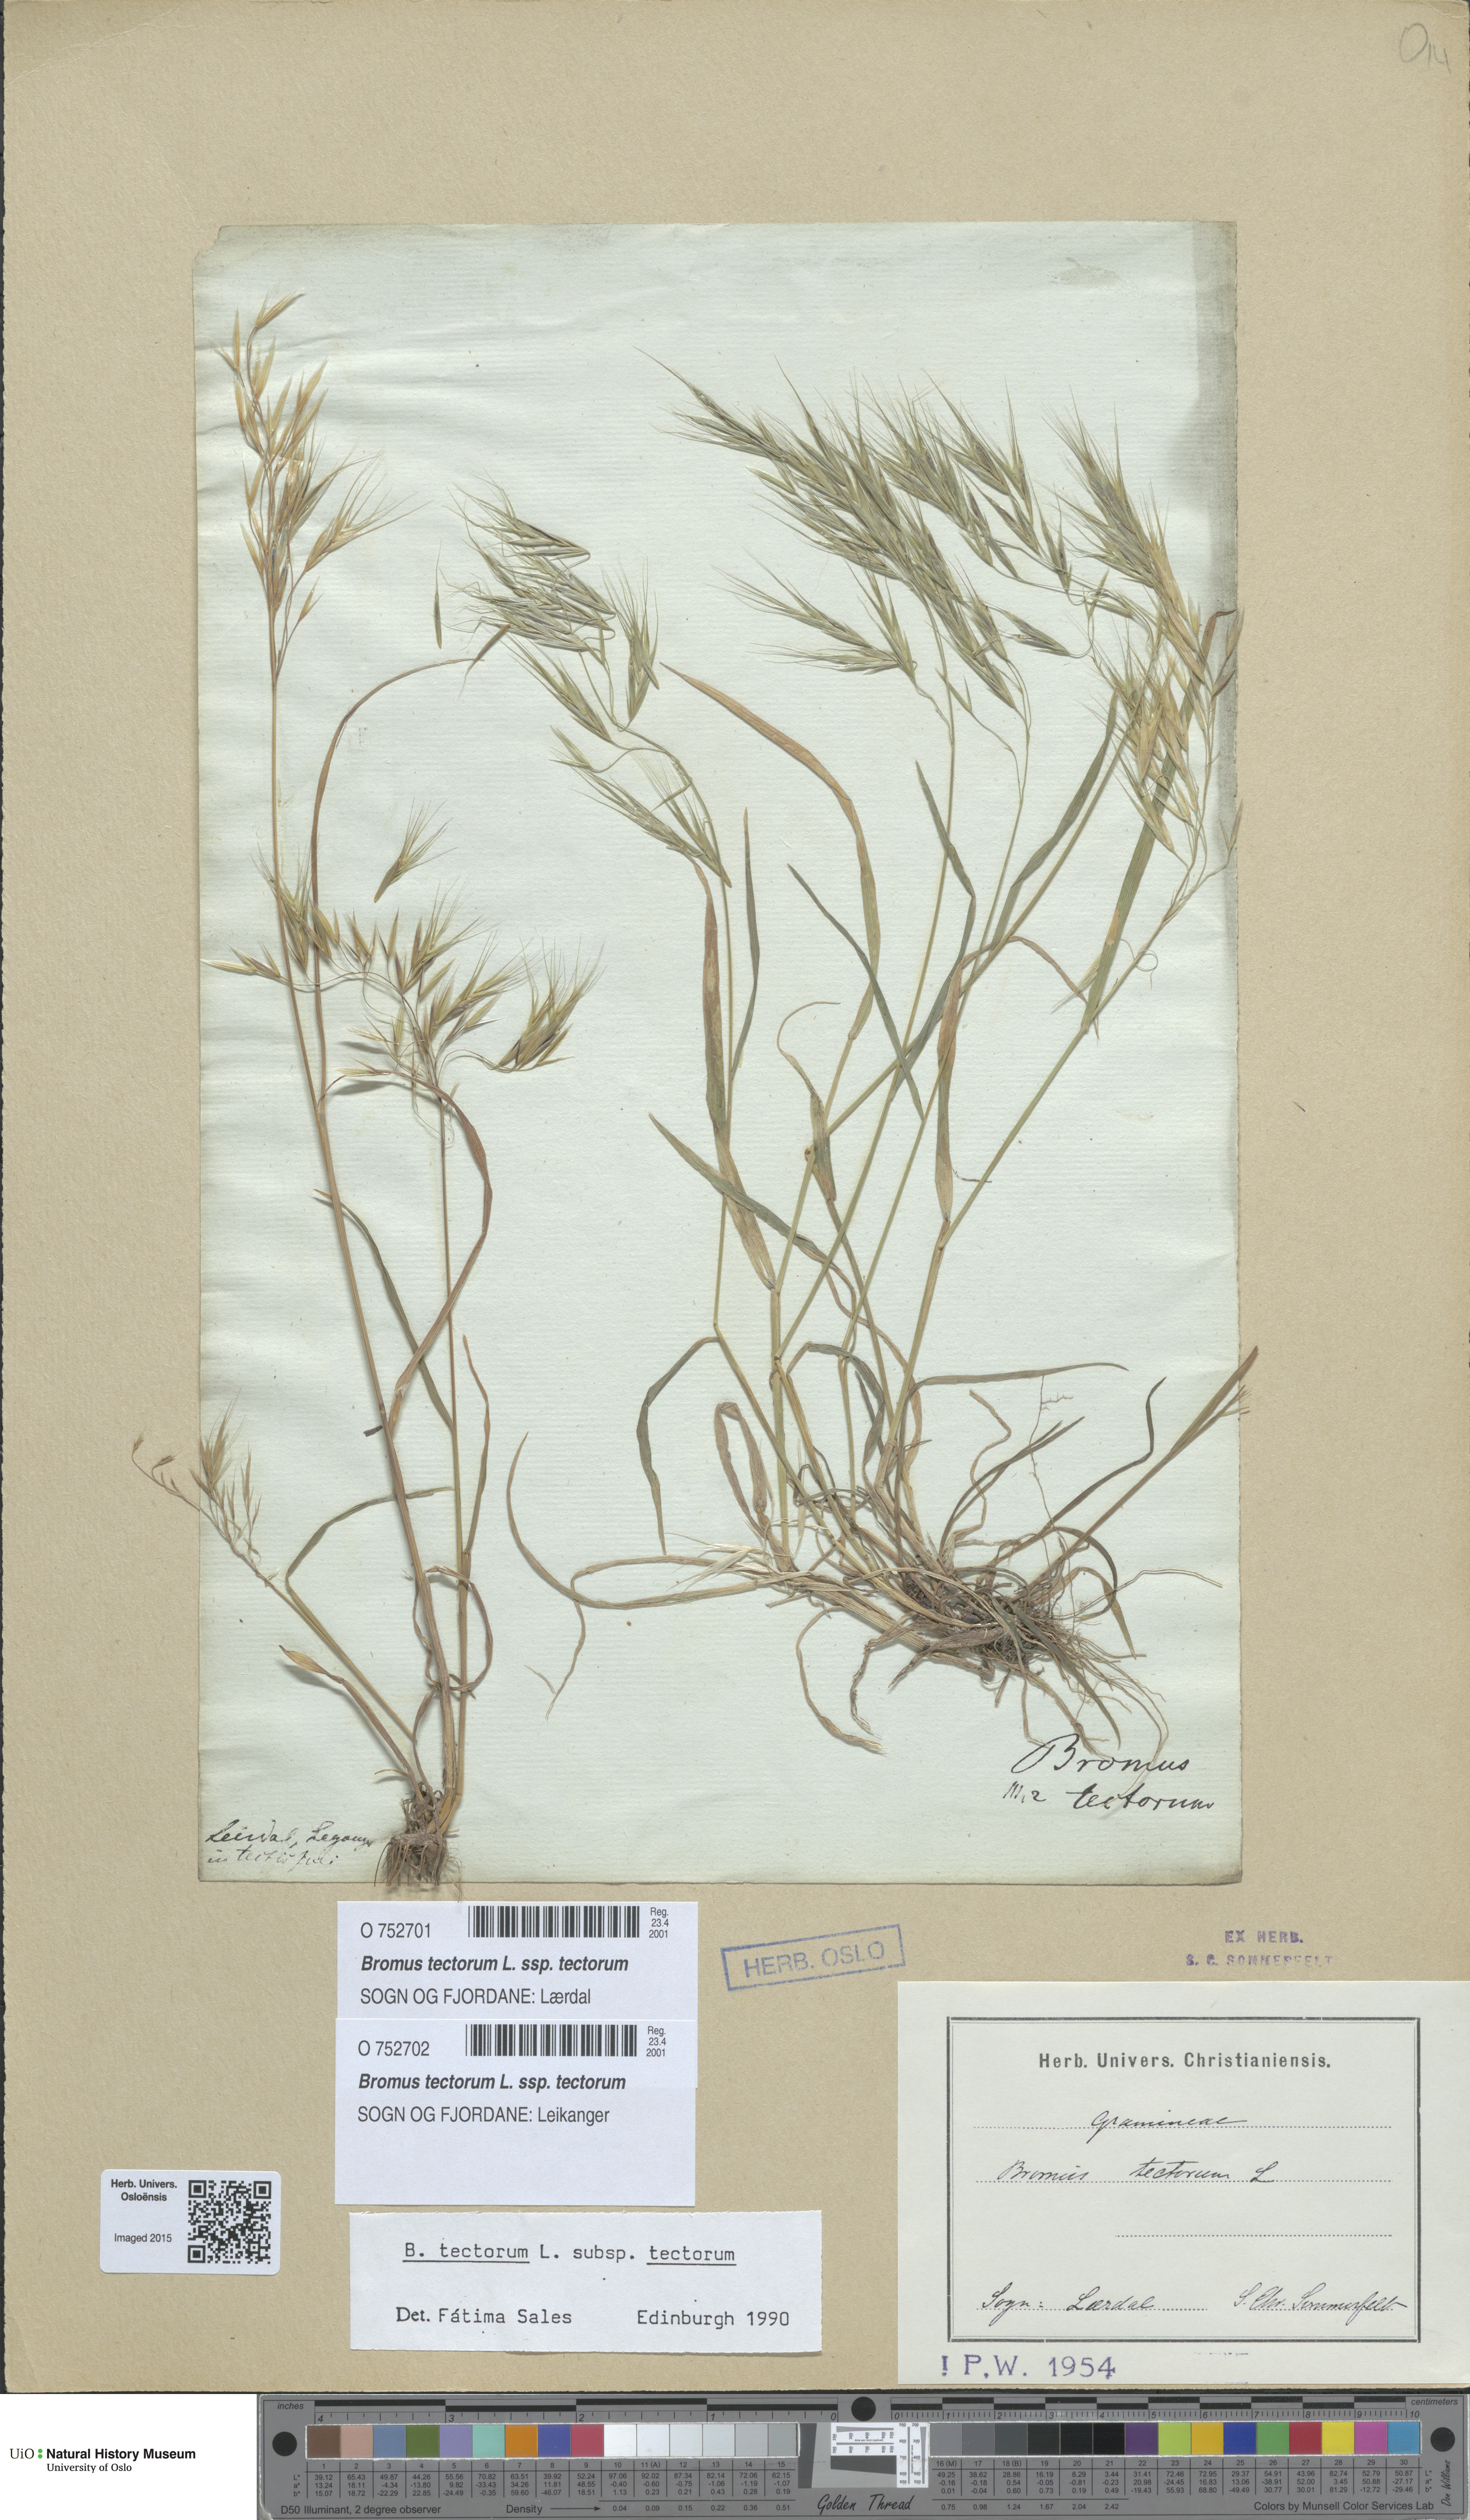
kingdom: Plantae
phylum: Tracheophyta
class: Liliopsida
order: Poales
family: Poaceae
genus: Bromus
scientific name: Bromus tectorum
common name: Cheatgrass
